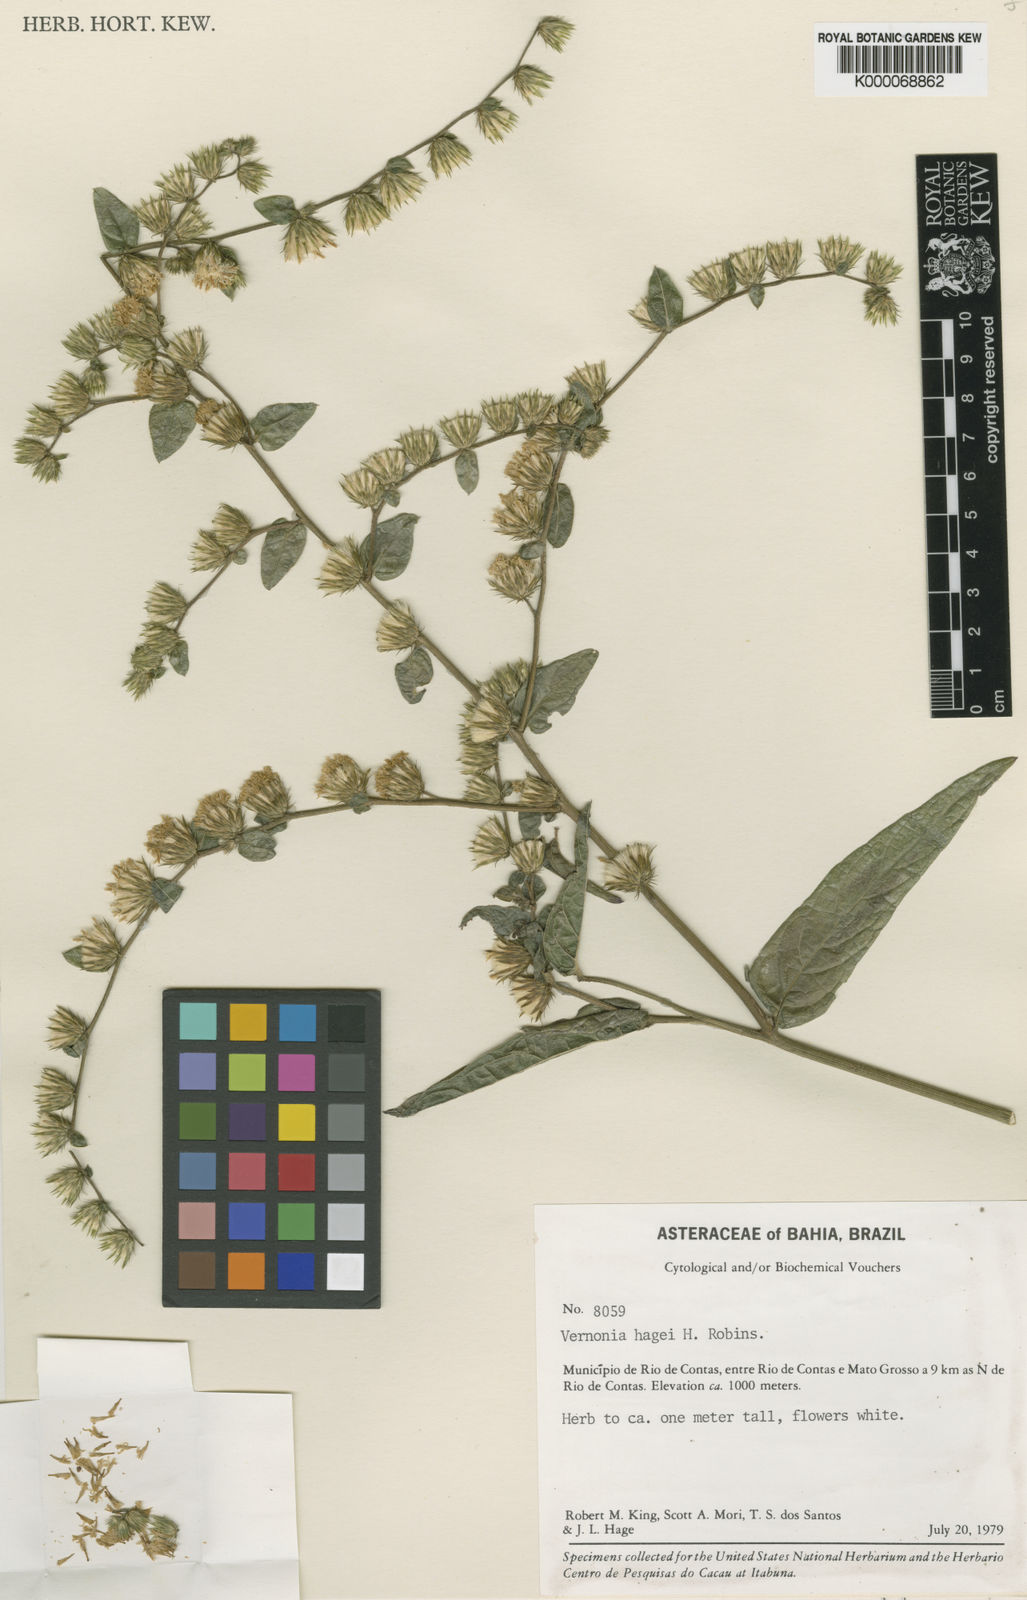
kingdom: Plantae
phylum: Tracheophyta
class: Magnoliopsida
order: Asterales
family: Asteraceae
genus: Lepidaploa
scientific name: Lepidaploa hagei
